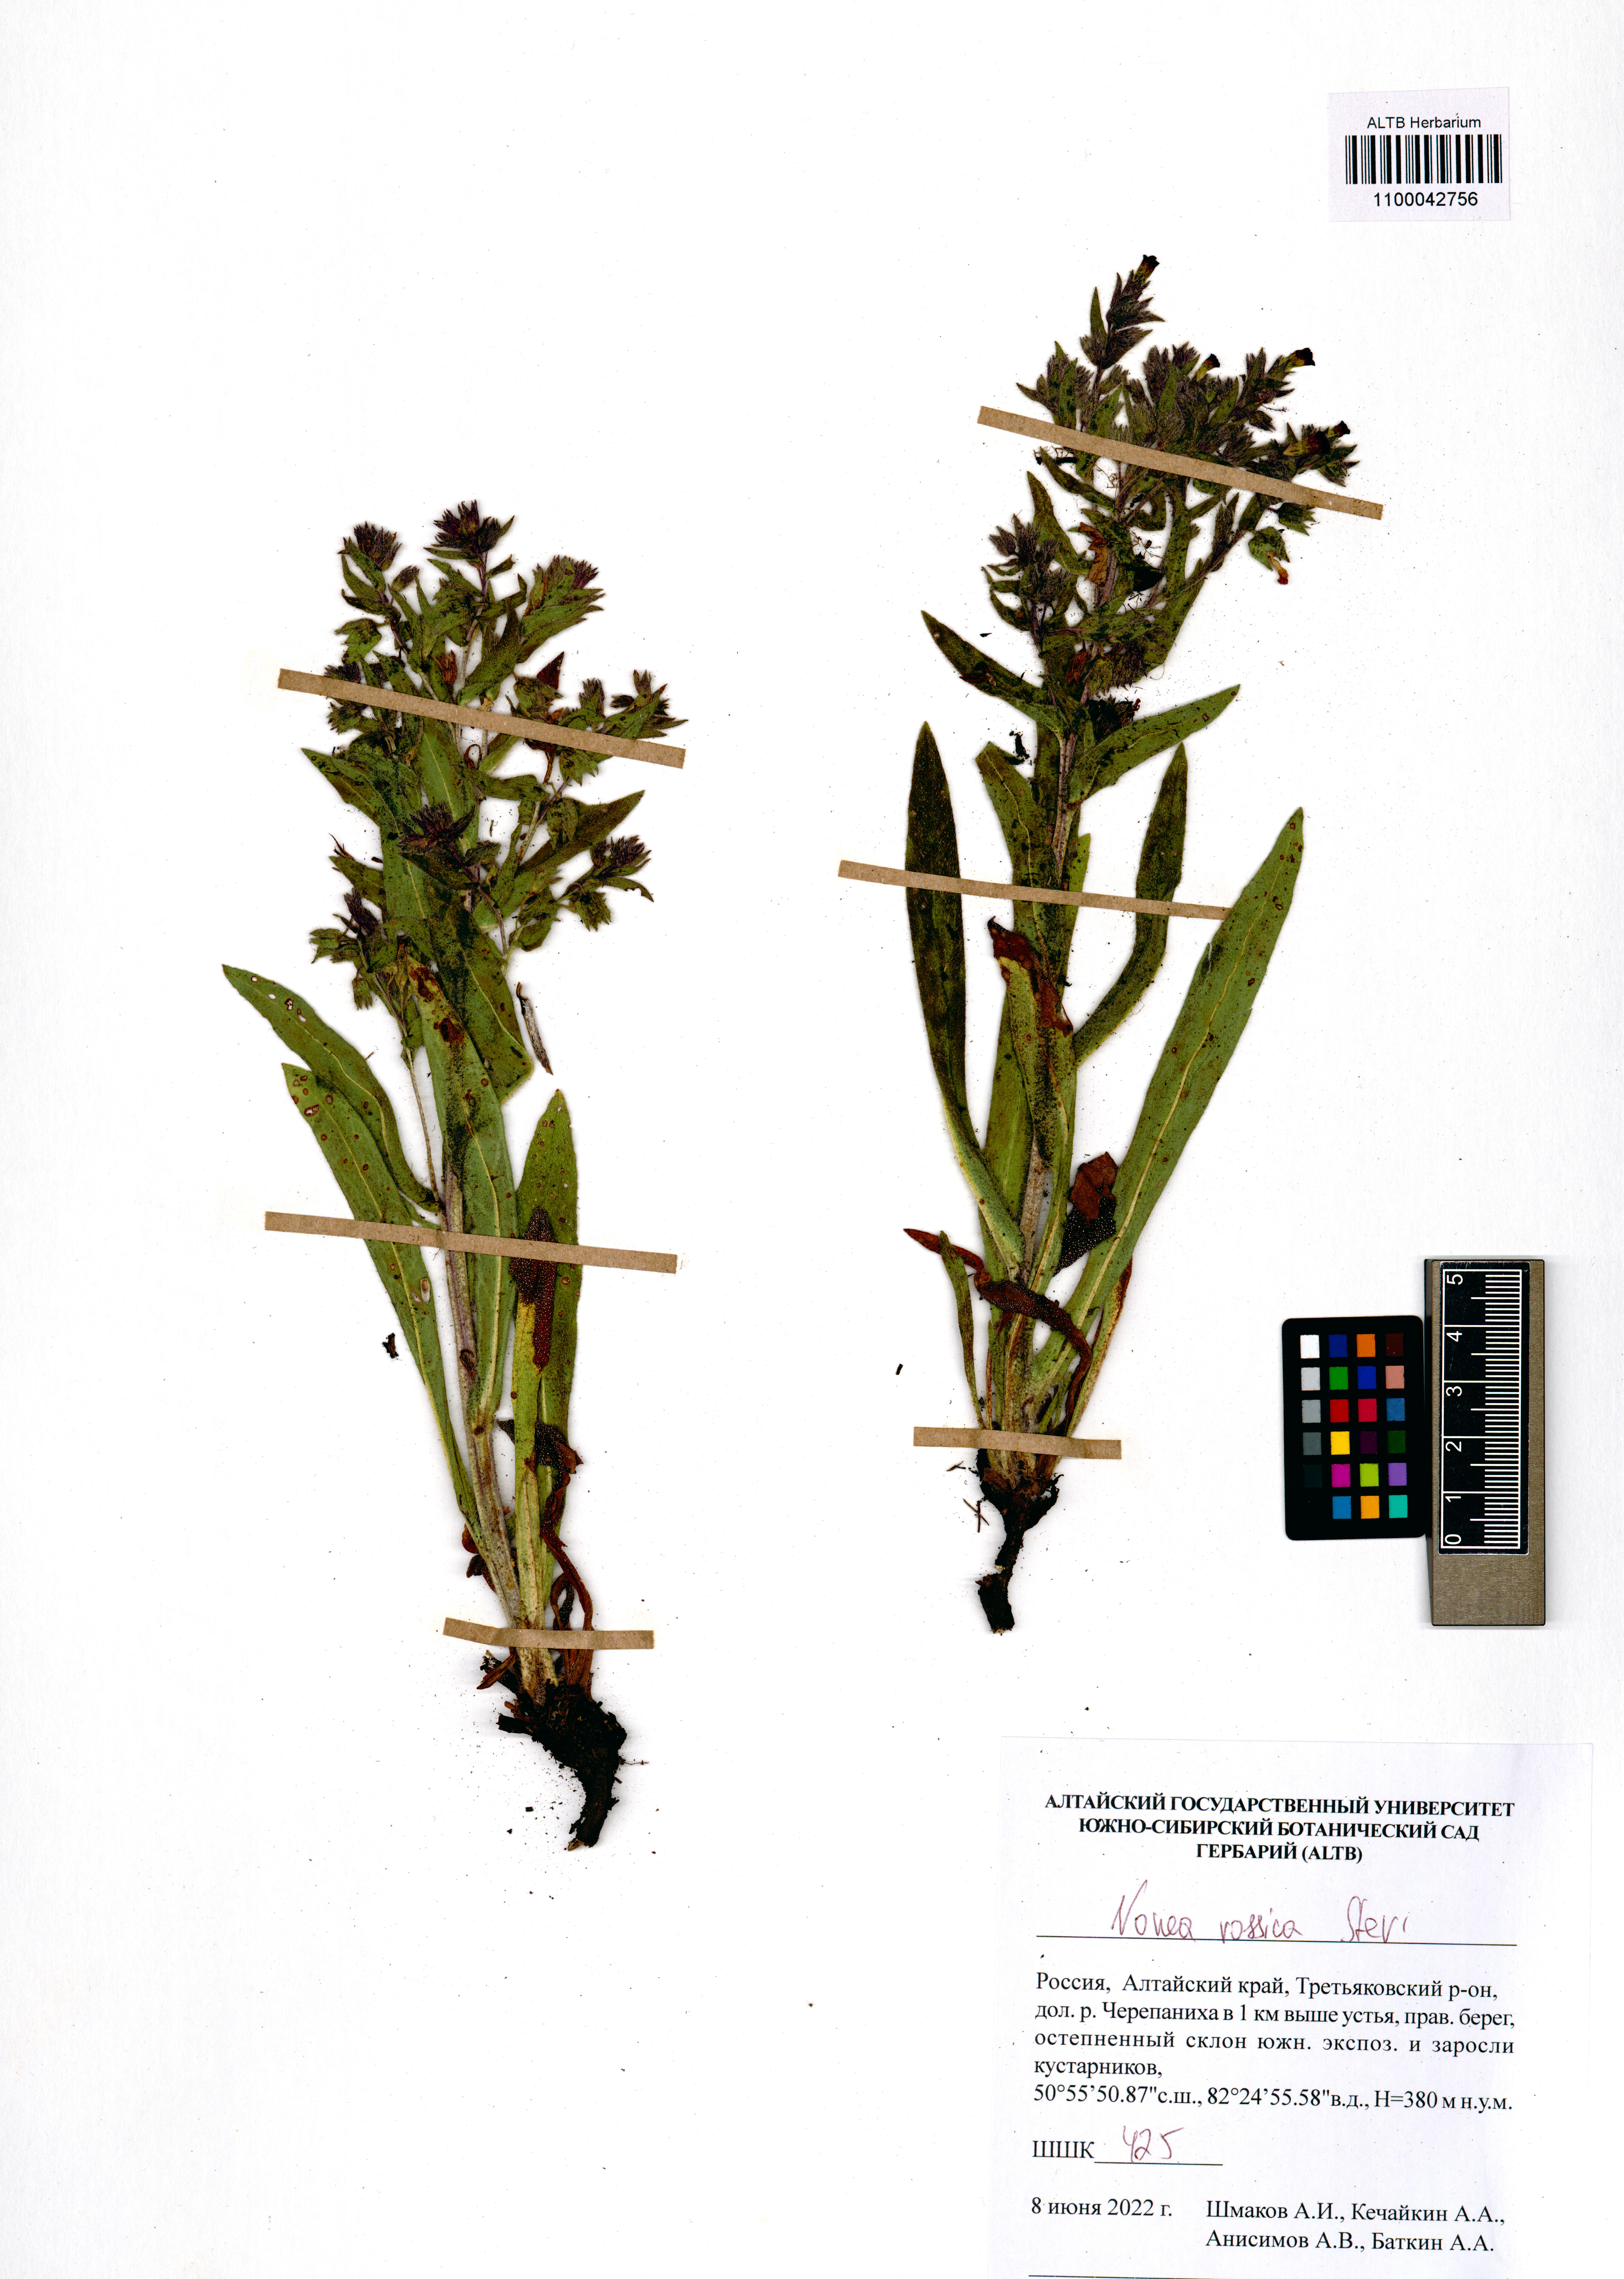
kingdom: Plantae
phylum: Tracheophyta
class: Magnoliopsida
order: Boraginales
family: Boraginaceae
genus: Nonea
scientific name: Nonea pulla
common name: Brown nonea
